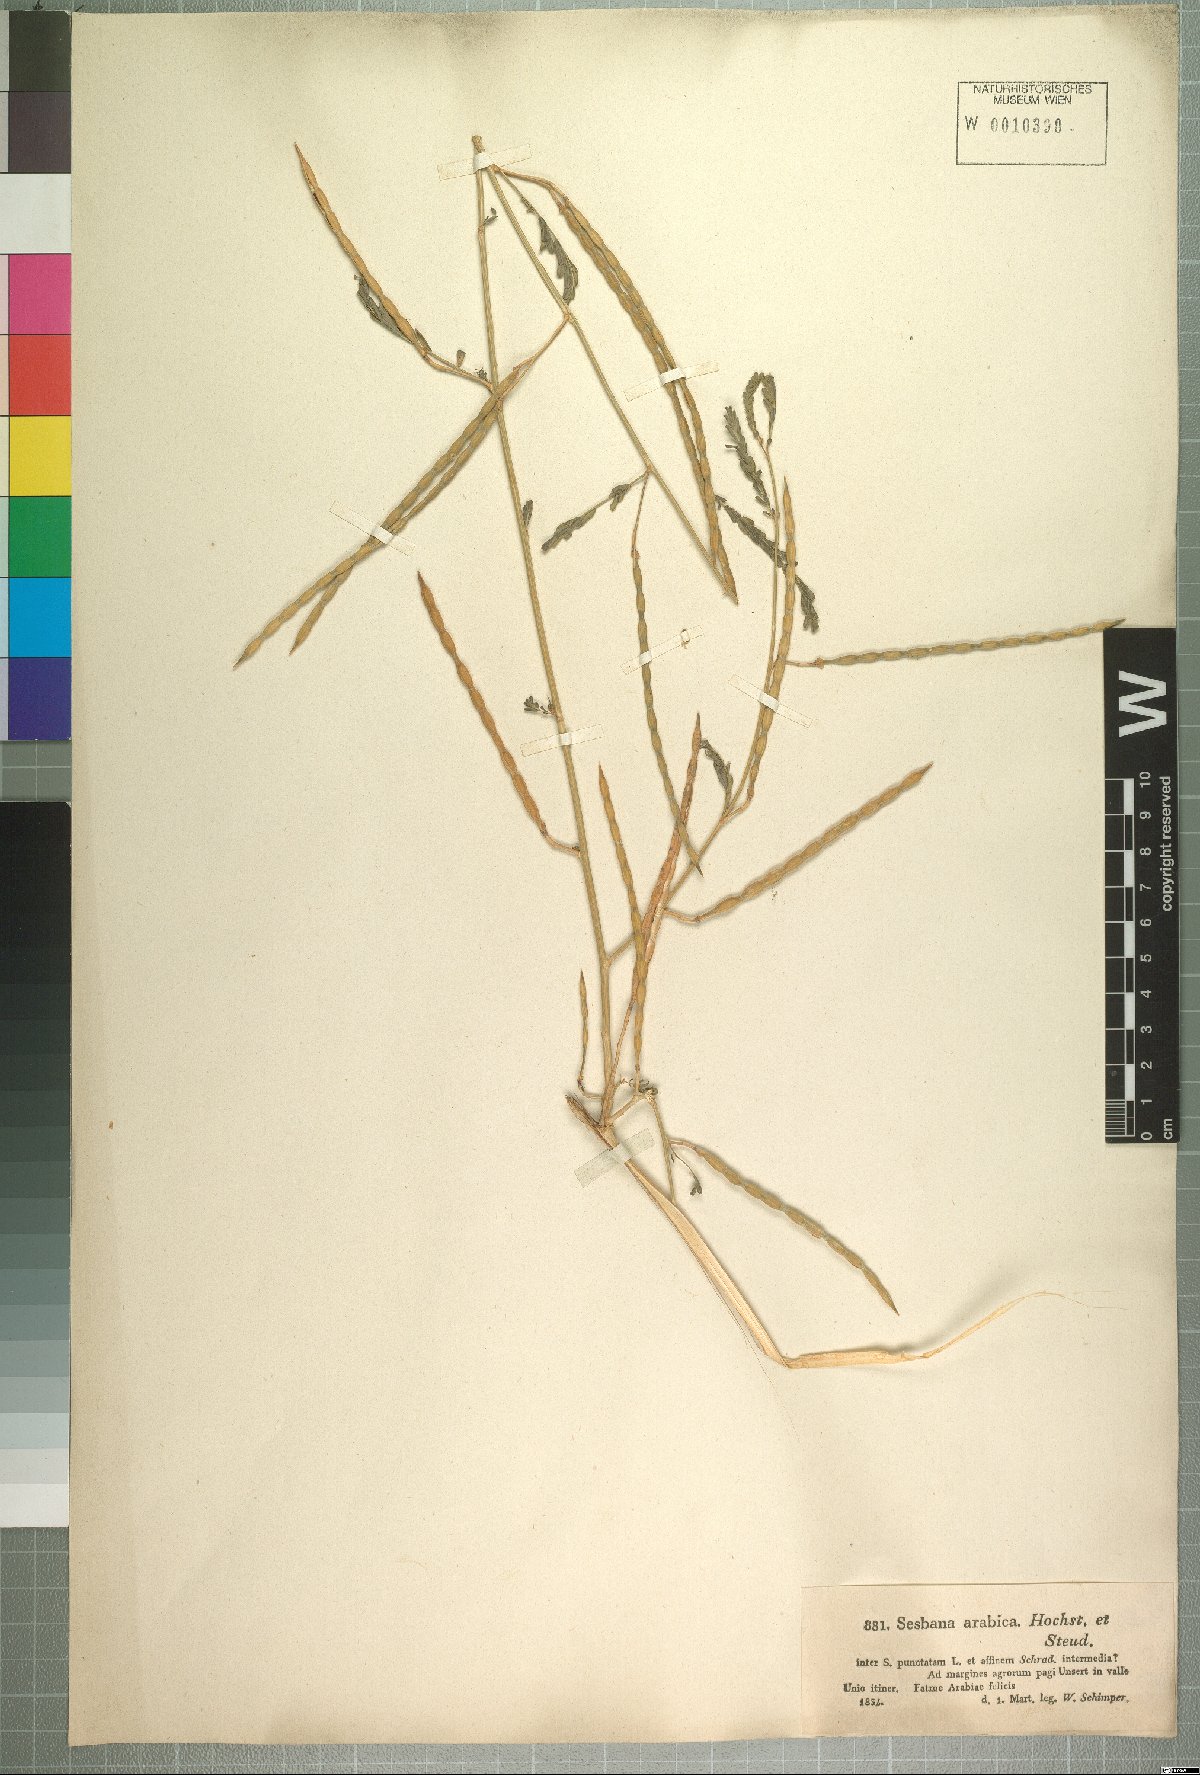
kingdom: Plantae
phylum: Tracheophyta
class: Magnoliopsida
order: Fabales
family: Fabaceae
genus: Sesbania
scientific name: Sesbania leptocarpa
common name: Riverhemp
